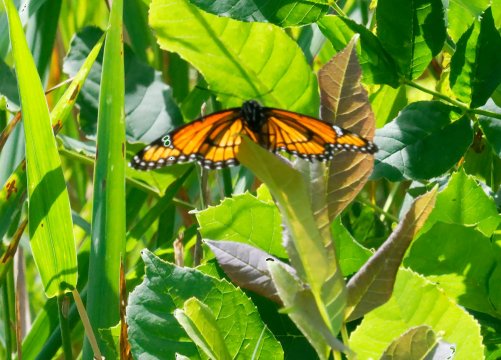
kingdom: Animalia
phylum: Arthropoda
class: Insecta
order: Lepidoptera
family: Nymphalidae
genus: Limenitis
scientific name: Limenitis archippus
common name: Viceroy
